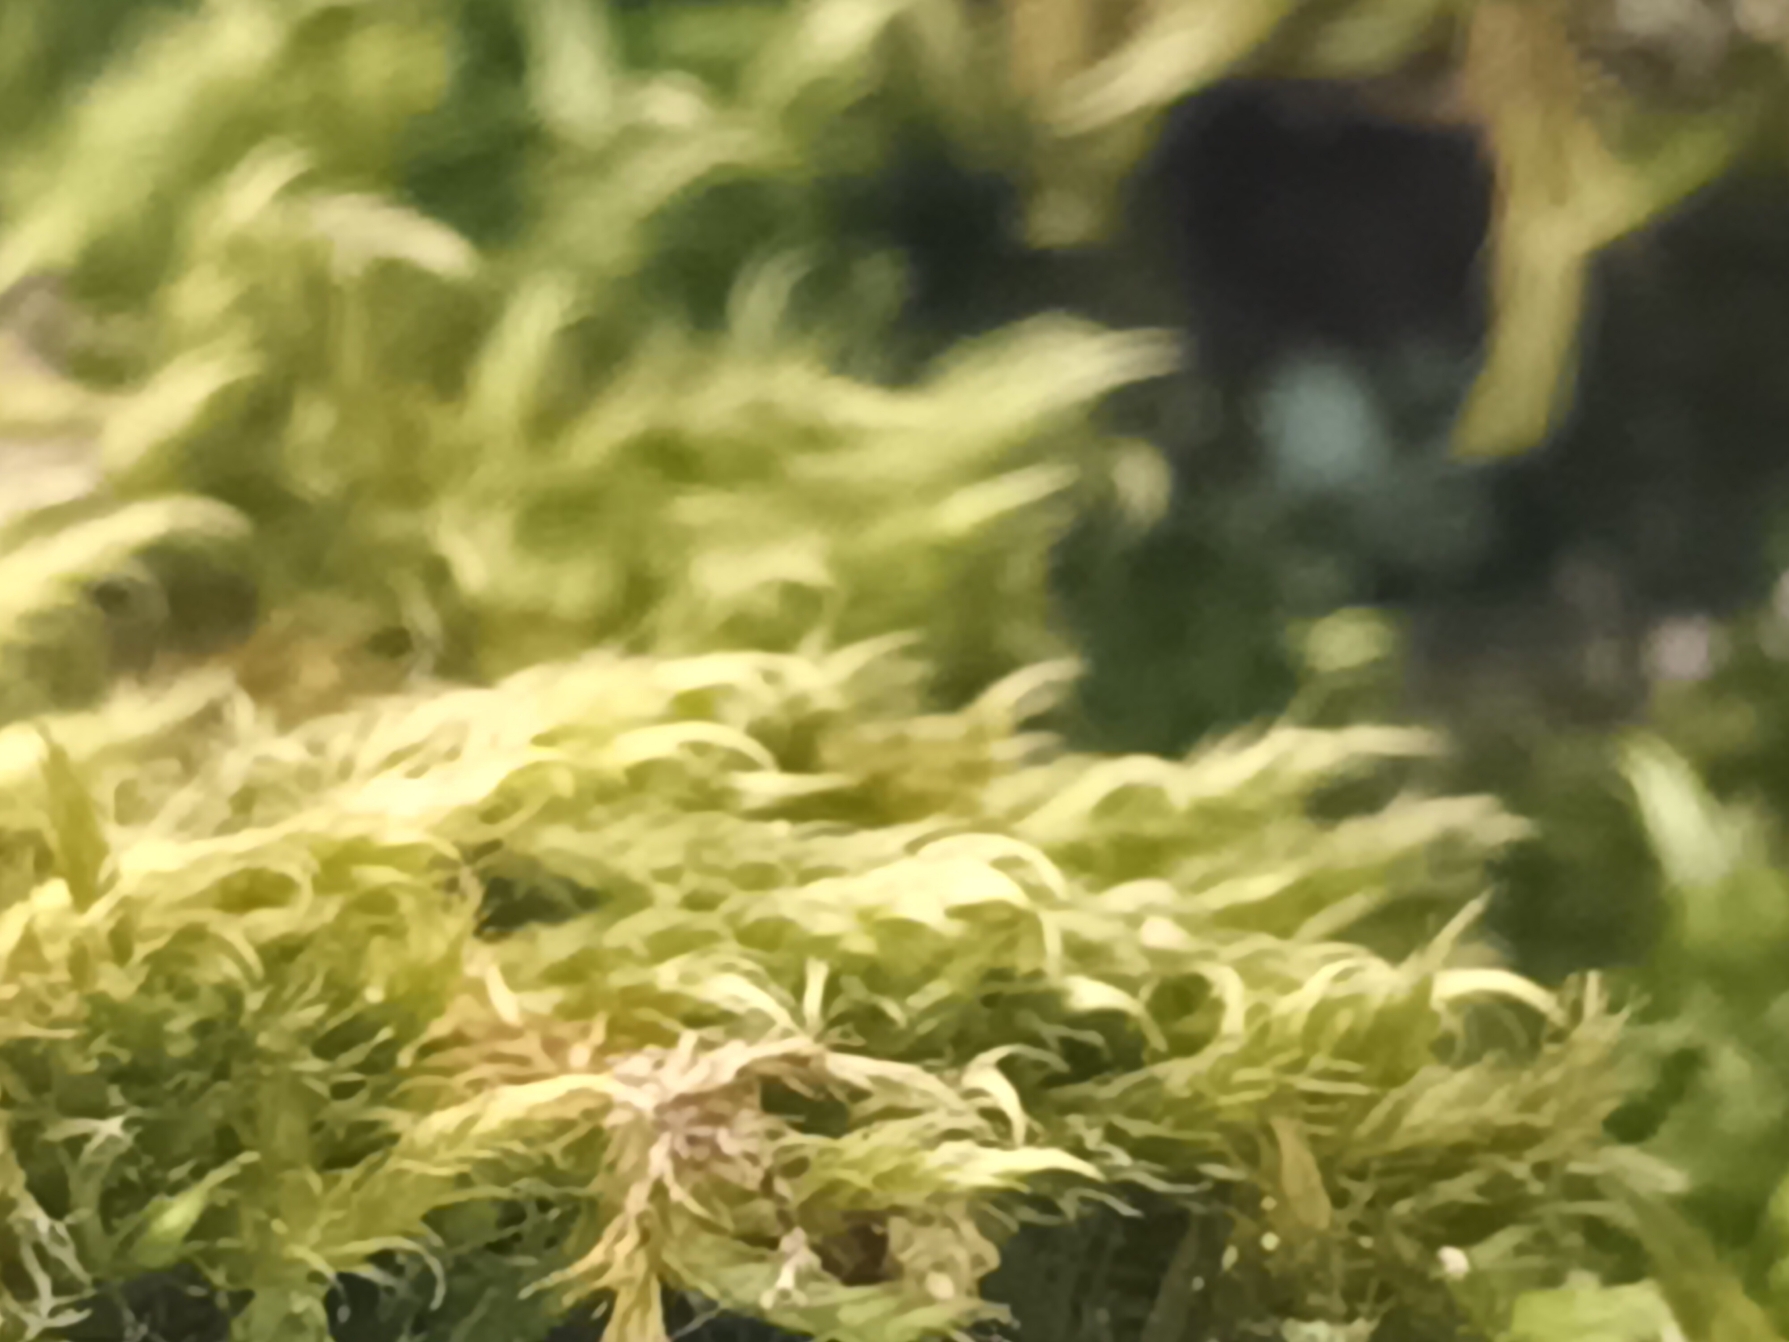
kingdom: Plantae
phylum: Bryophyta
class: Bryopsida
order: Hypnales
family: Hypnaceae
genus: Hypnum
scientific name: Hypnum
